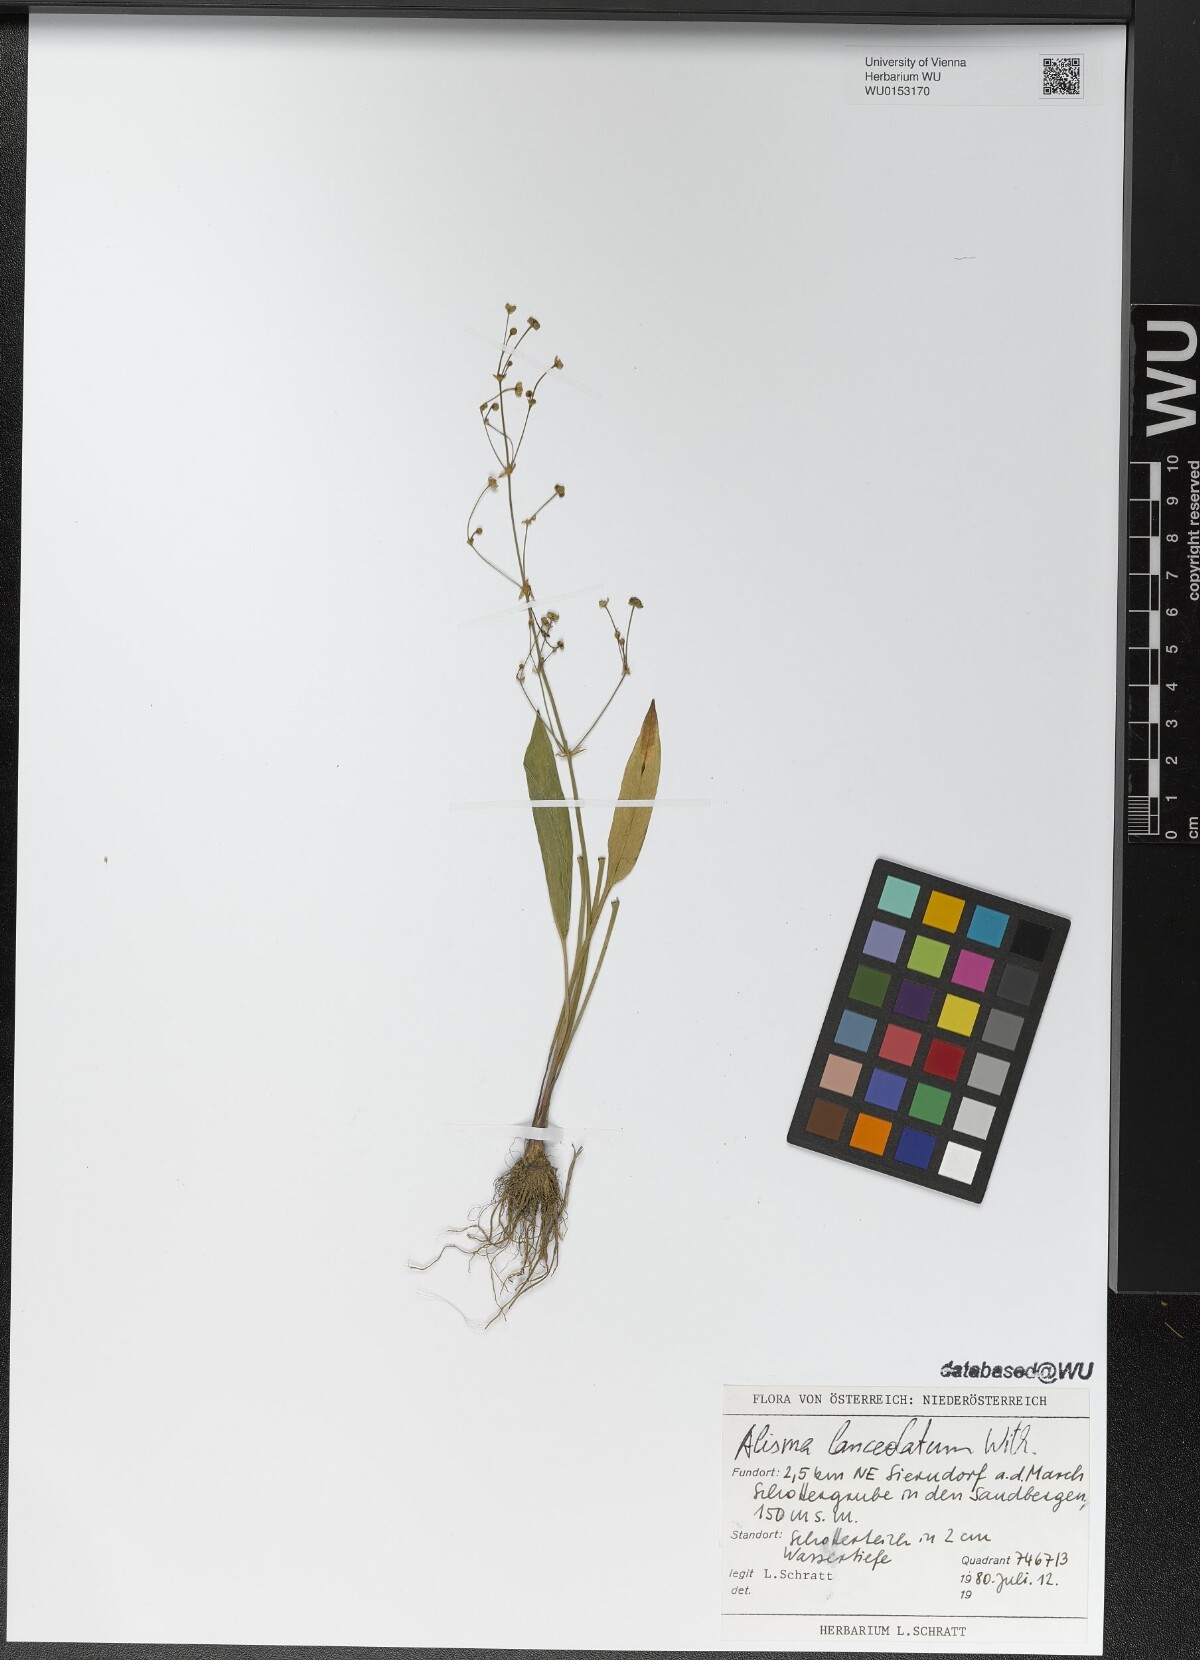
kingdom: Plantae
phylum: Tracheophyta
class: Liliopsida
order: Alismatales
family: Alismataceae
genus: Alisma
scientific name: Alisma lanceolatum
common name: Narrow-leaved water-plantain
